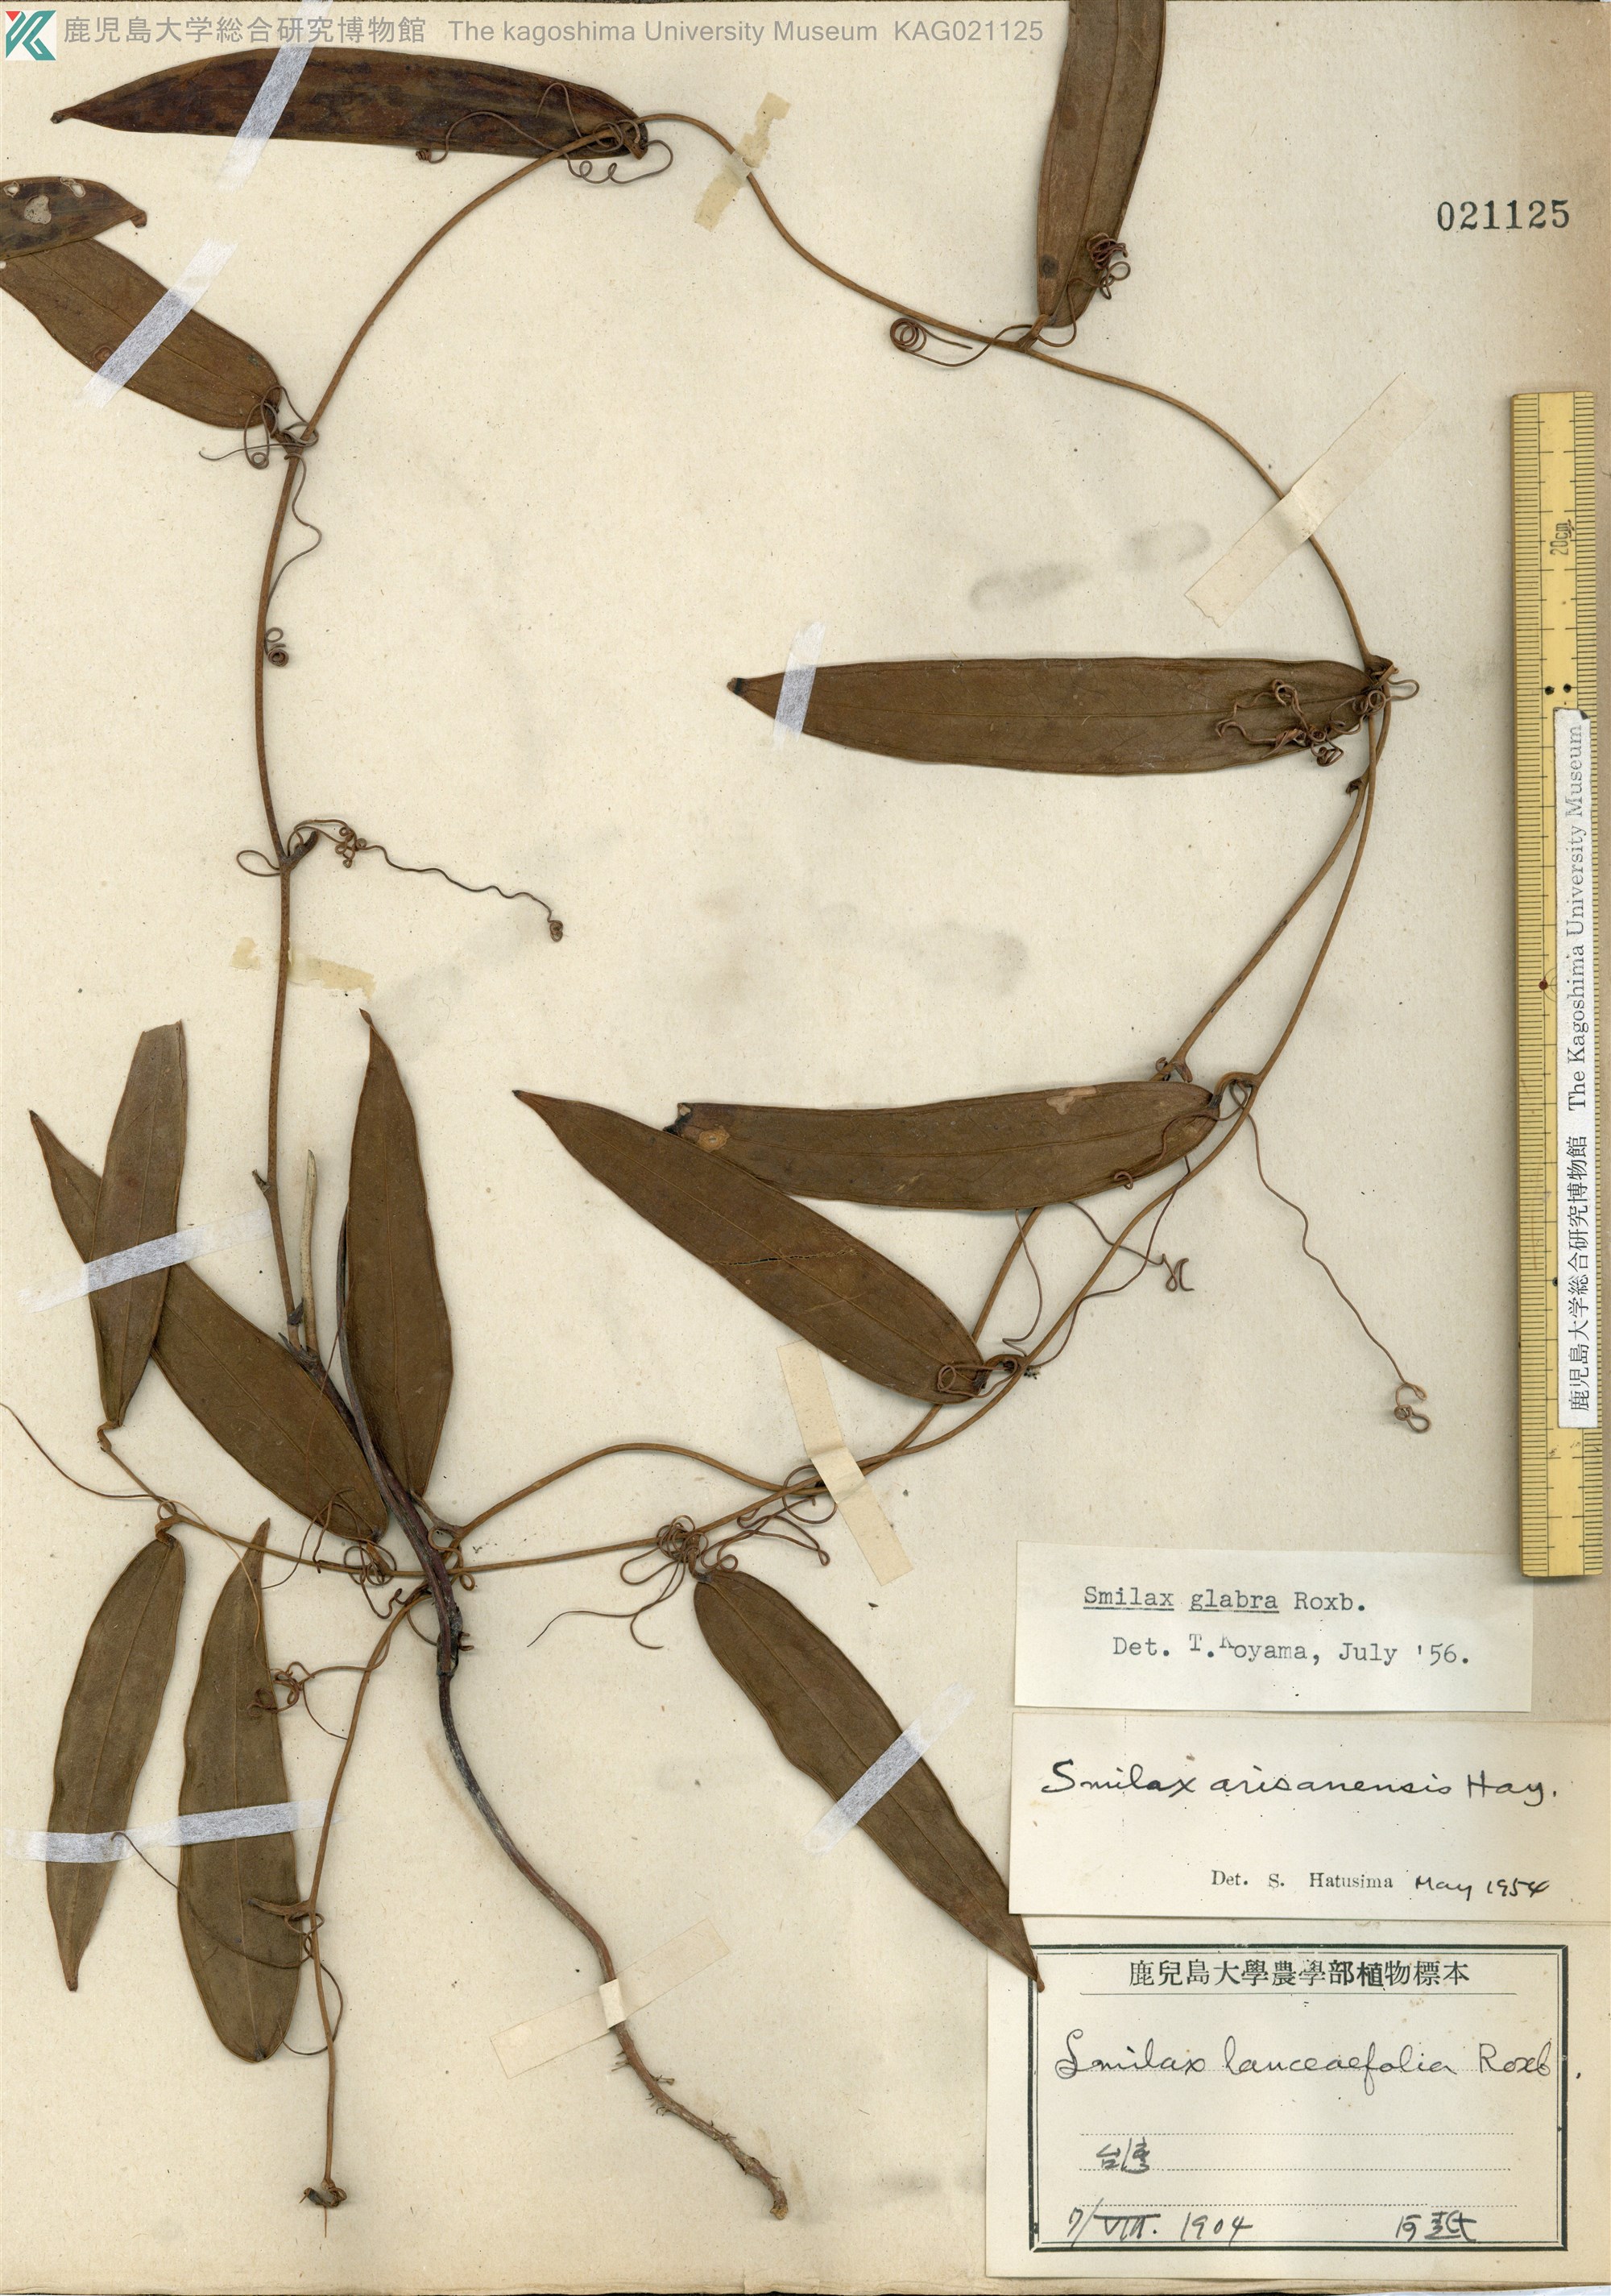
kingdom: Plantae
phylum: Tracheophyta
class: Liliopsida
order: Liliales
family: Smilacaceae
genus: Smilax
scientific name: Smilax glabra
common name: Chinese smilax
